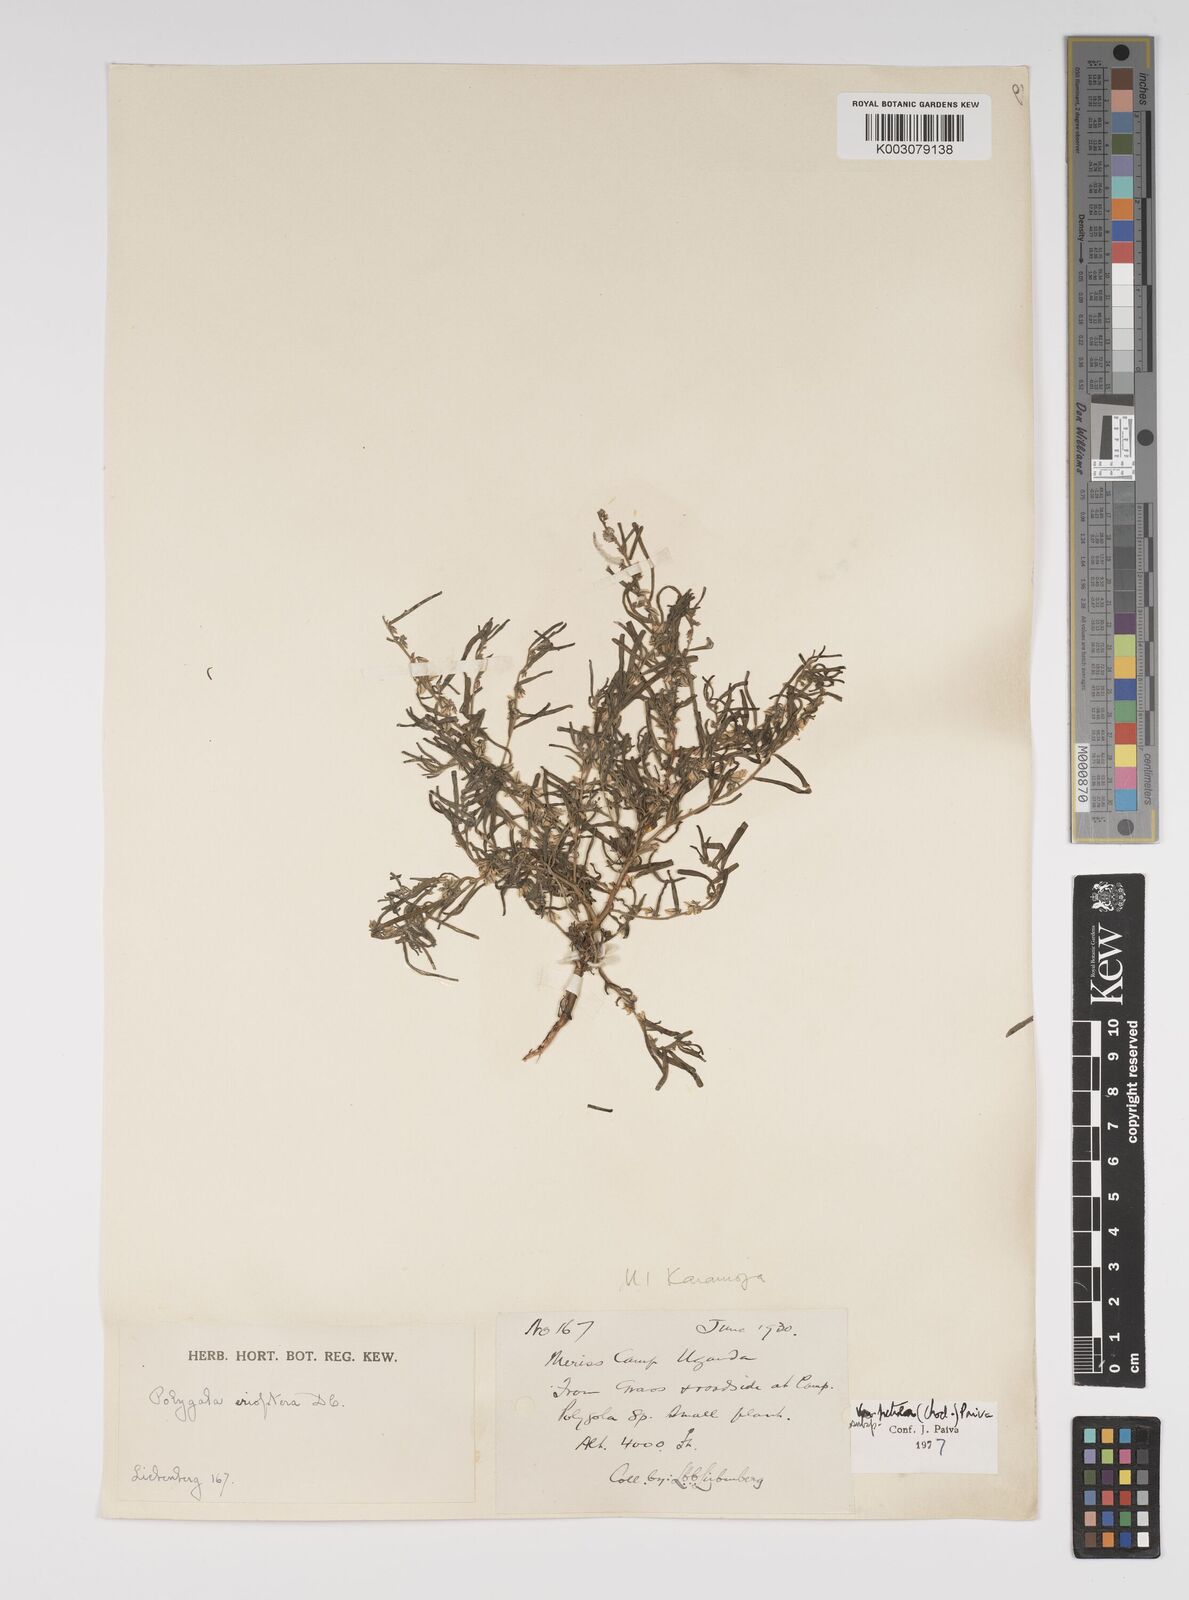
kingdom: Plantae
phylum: Tracheophyta
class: Magnoliopsida
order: Fabales
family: Polygalaceae
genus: Polygala
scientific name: Polygala erioptera
